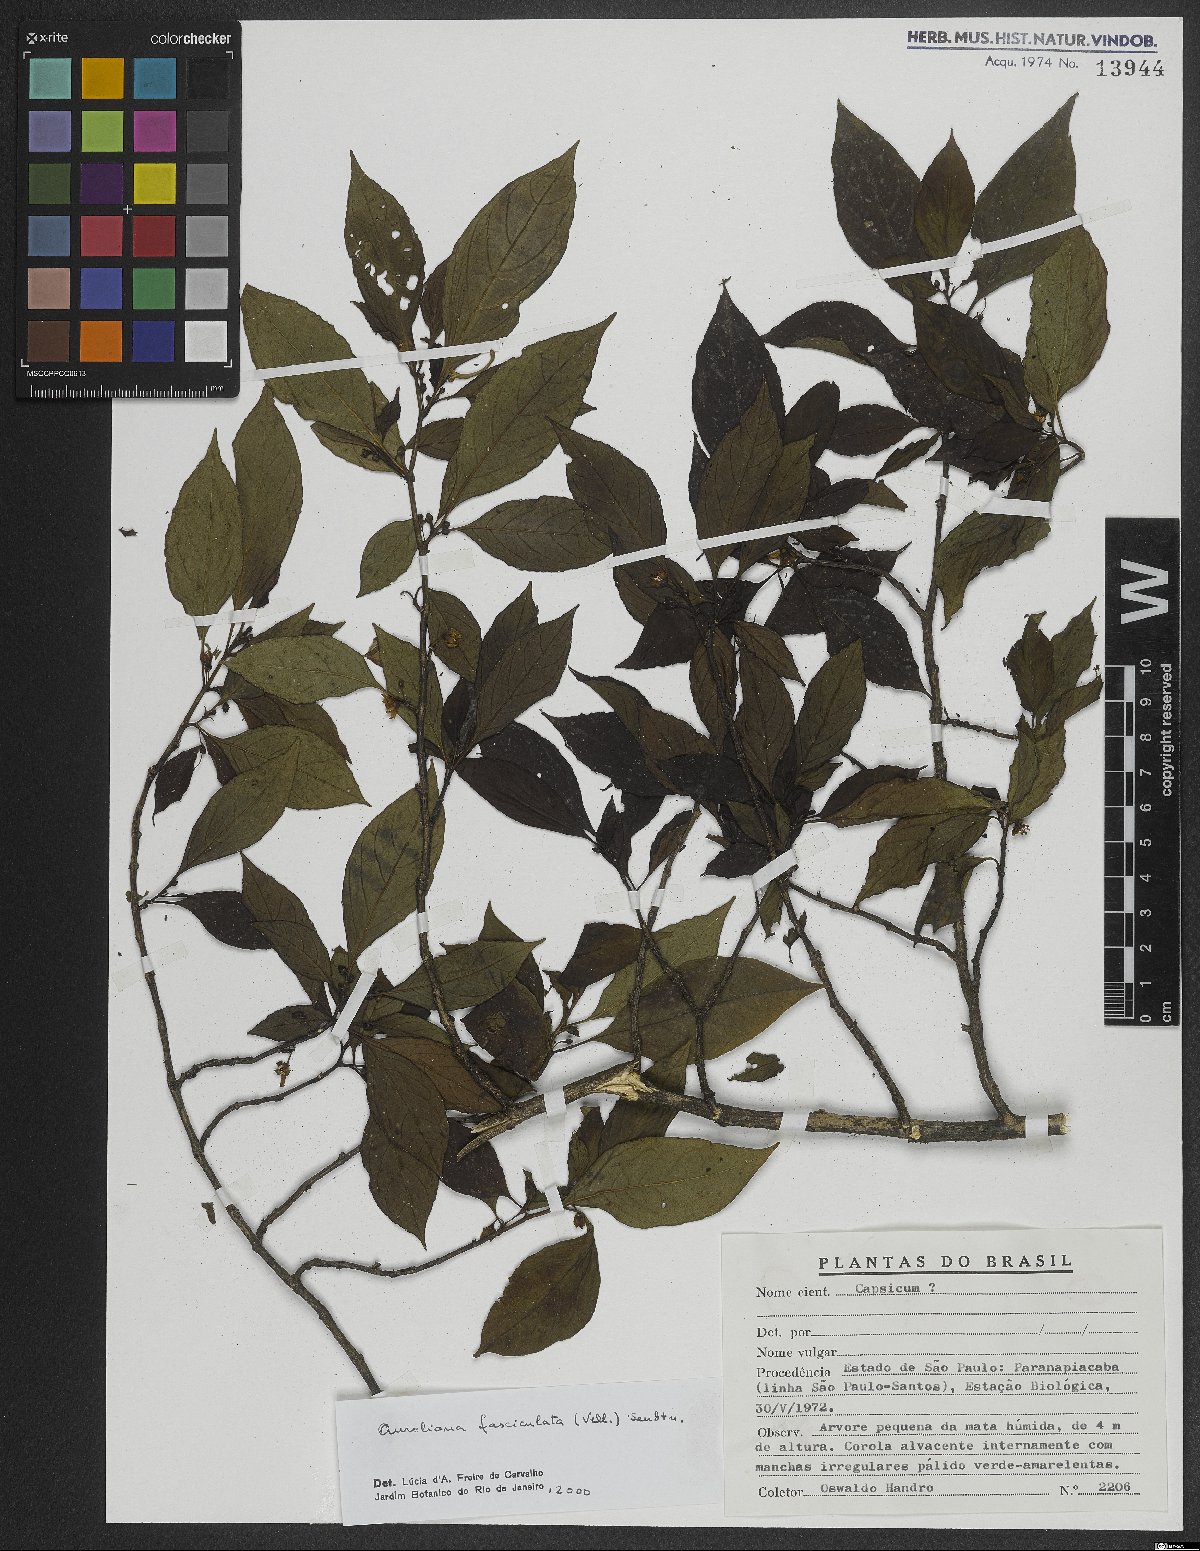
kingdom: Plantae
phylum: Tracheophyta
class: Magnoliopsida
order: Solanales
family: Solanaceae
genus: Athenaea
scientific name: Athenaea fasciculata
